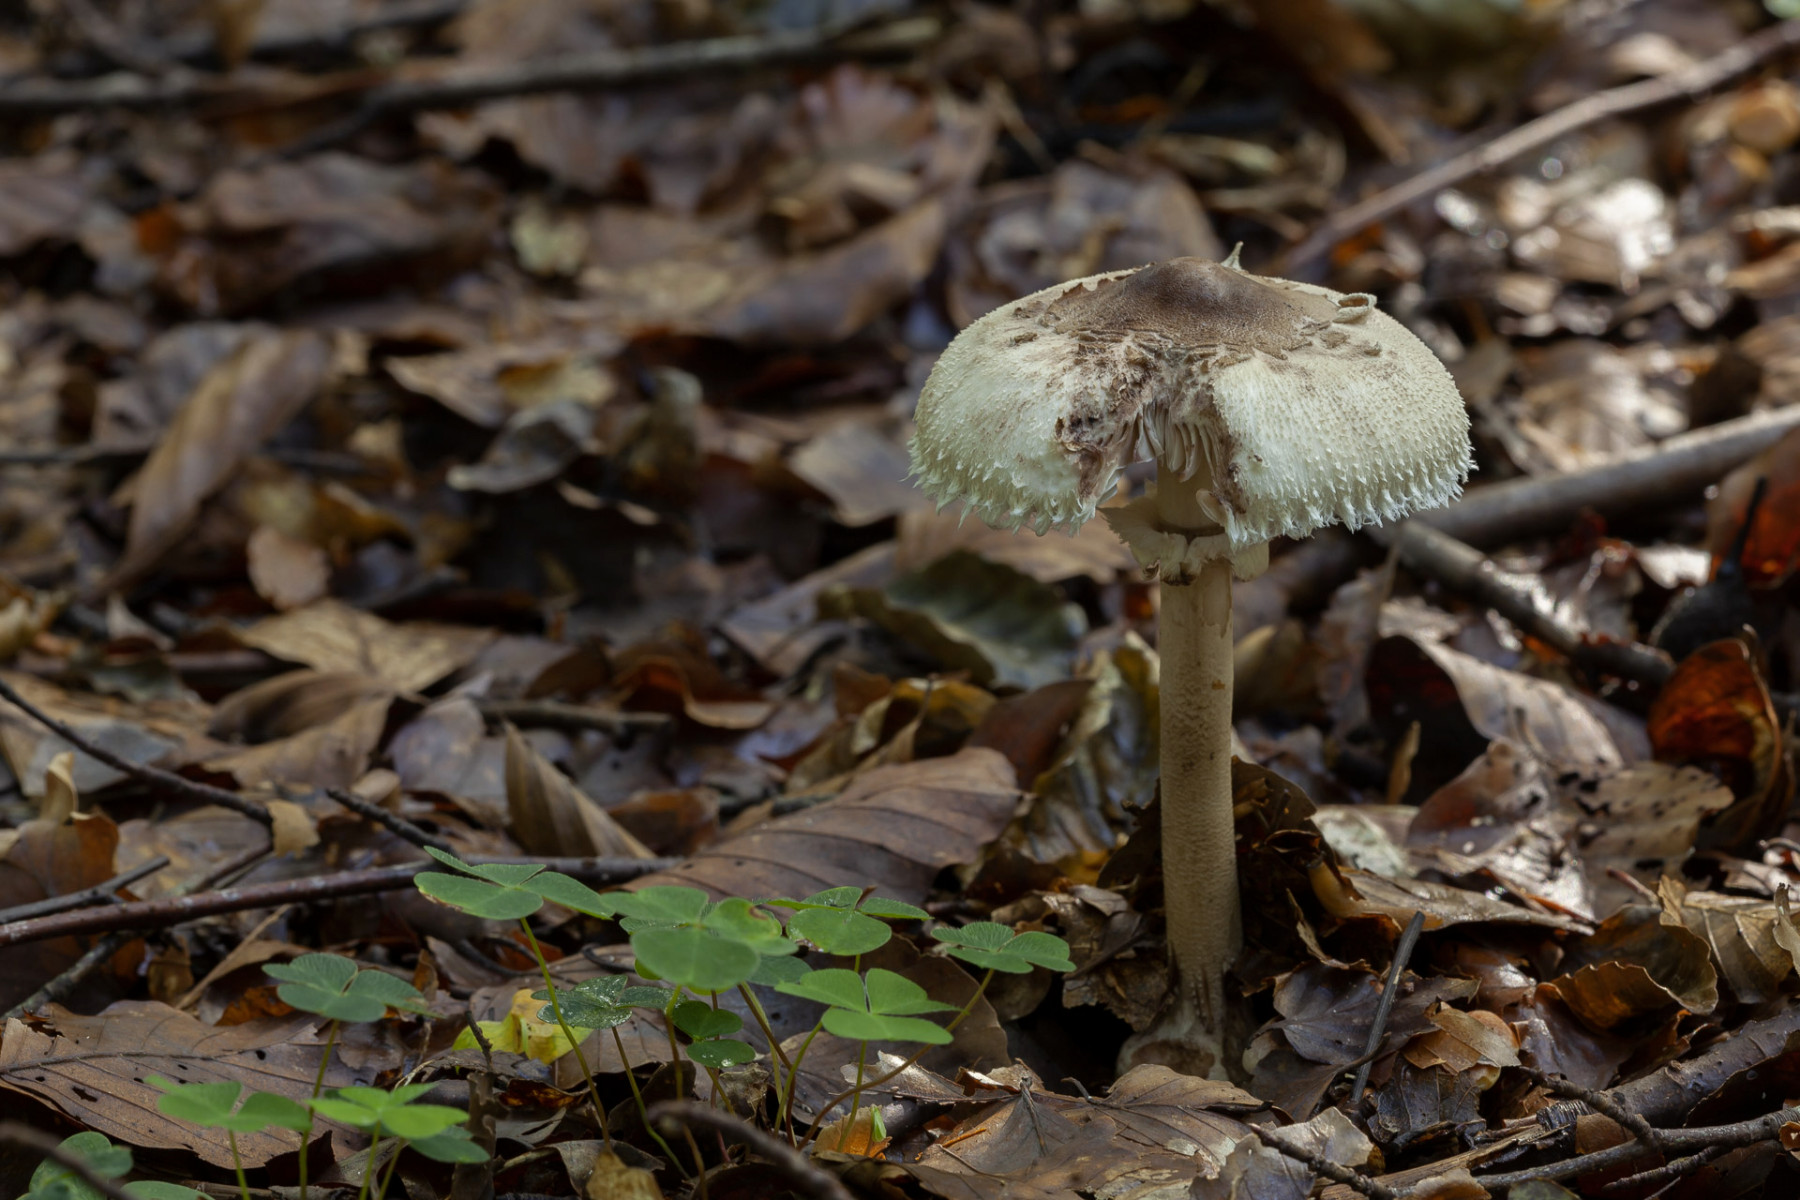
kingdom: Fungi
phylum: Basidiomycota
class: Agaricomycetes
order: Agaricales
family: Agaricaceae
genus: Macrolepiota
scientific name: Macrolepiota mastoidea
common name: puklet kæmpeparasolhat
